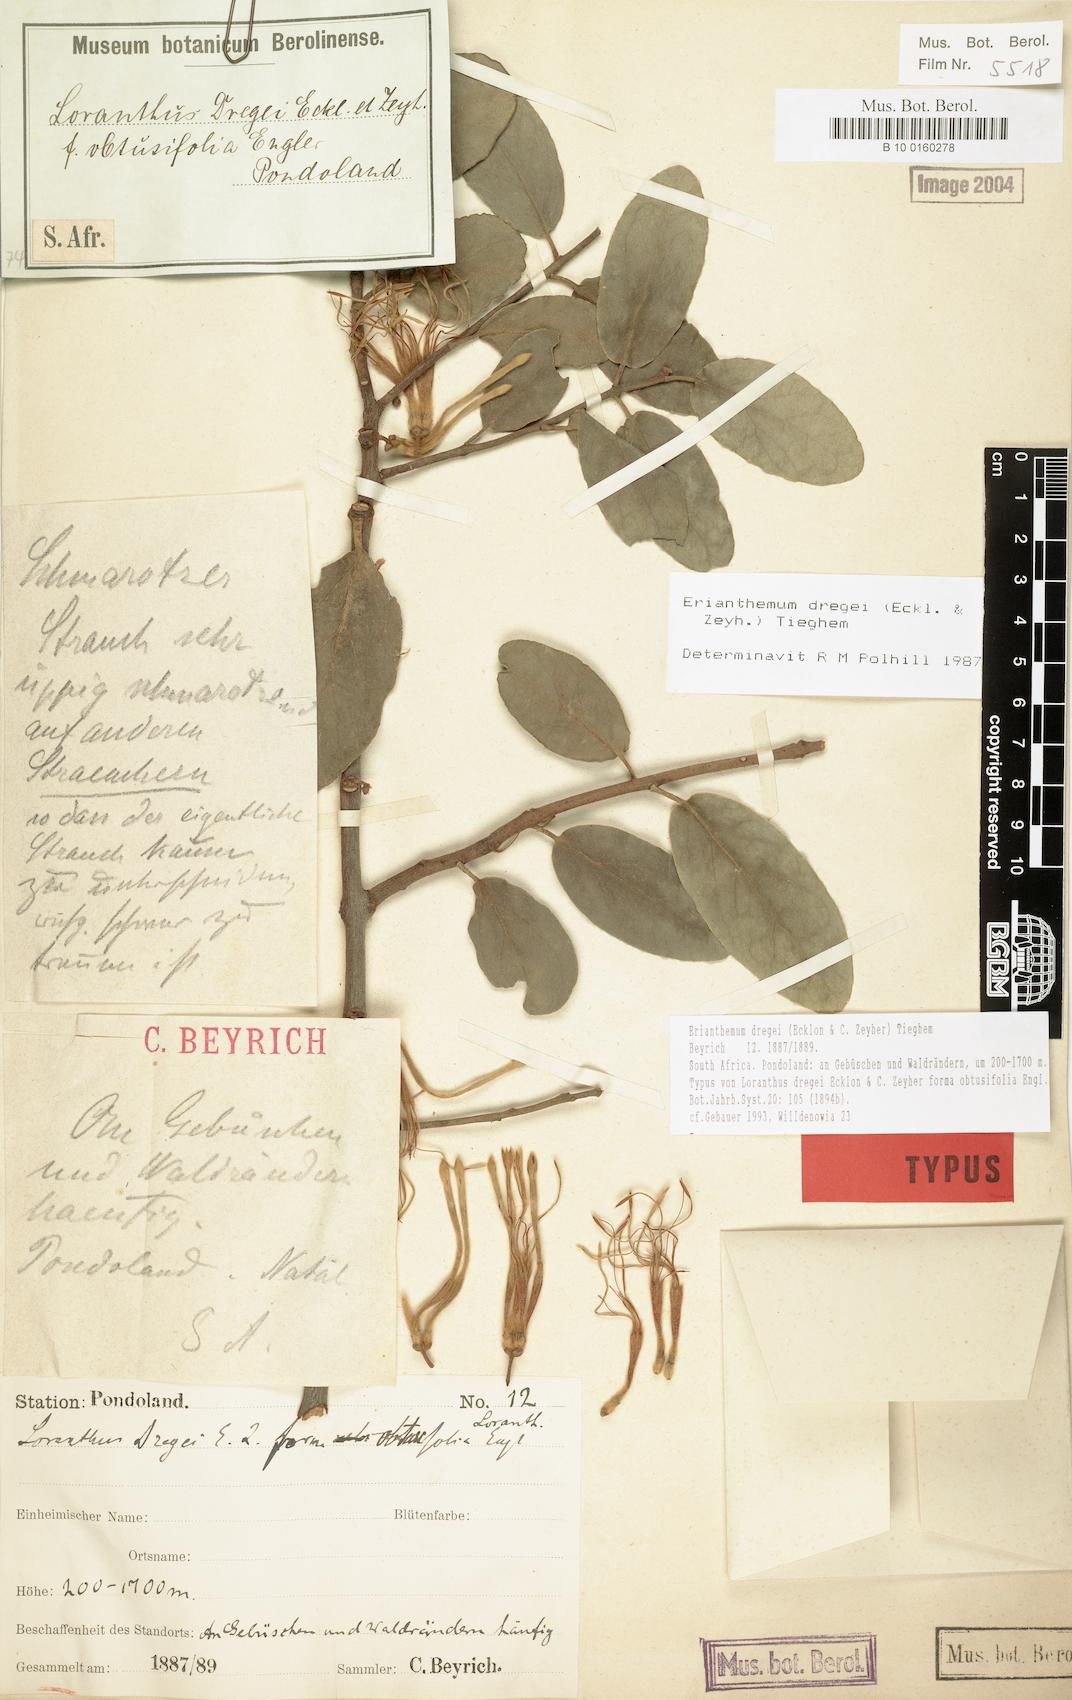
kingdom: Plantae
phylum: Tracheophyta
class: Magnoliopsida
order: Santalales
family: Loranthaceae
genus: Erianthemum
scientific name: Erianthemum dregei
